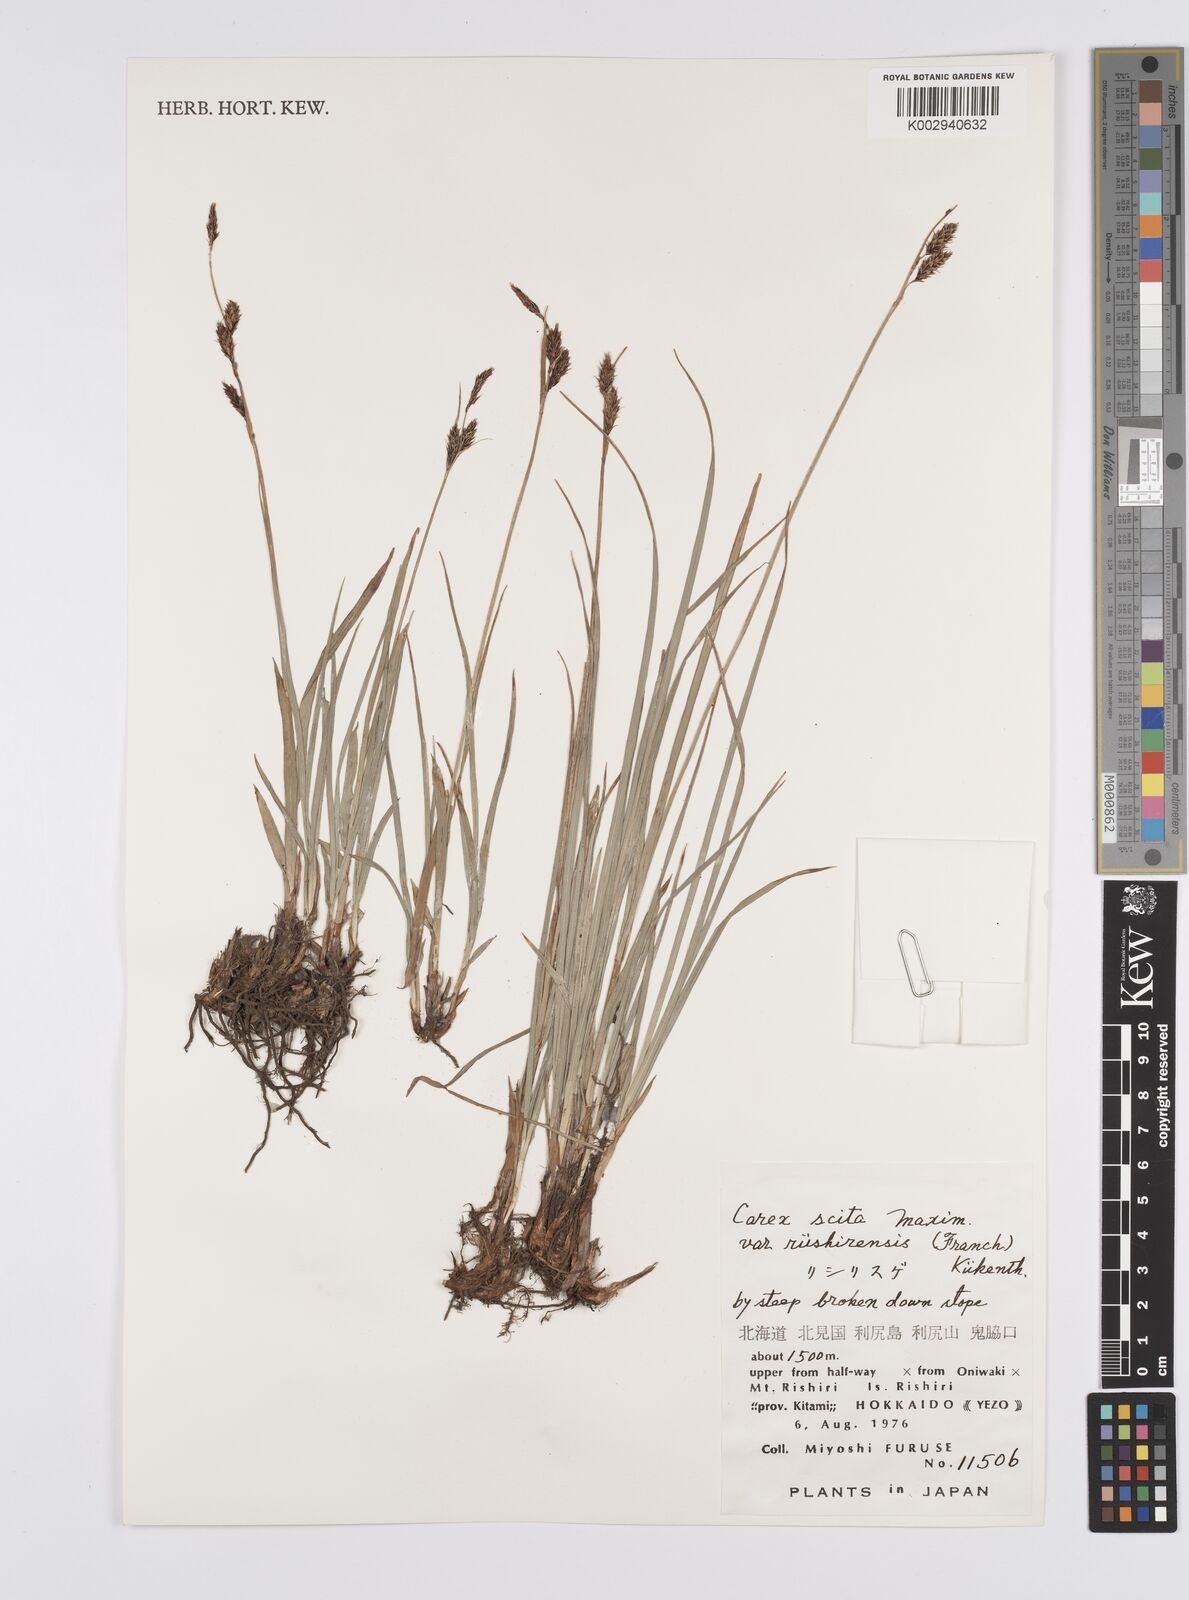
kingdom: Plantae
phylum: Tracheophyta
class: Liliopsida
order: Poales
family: Cyperaceae
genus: Carex
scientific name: Carex scita
